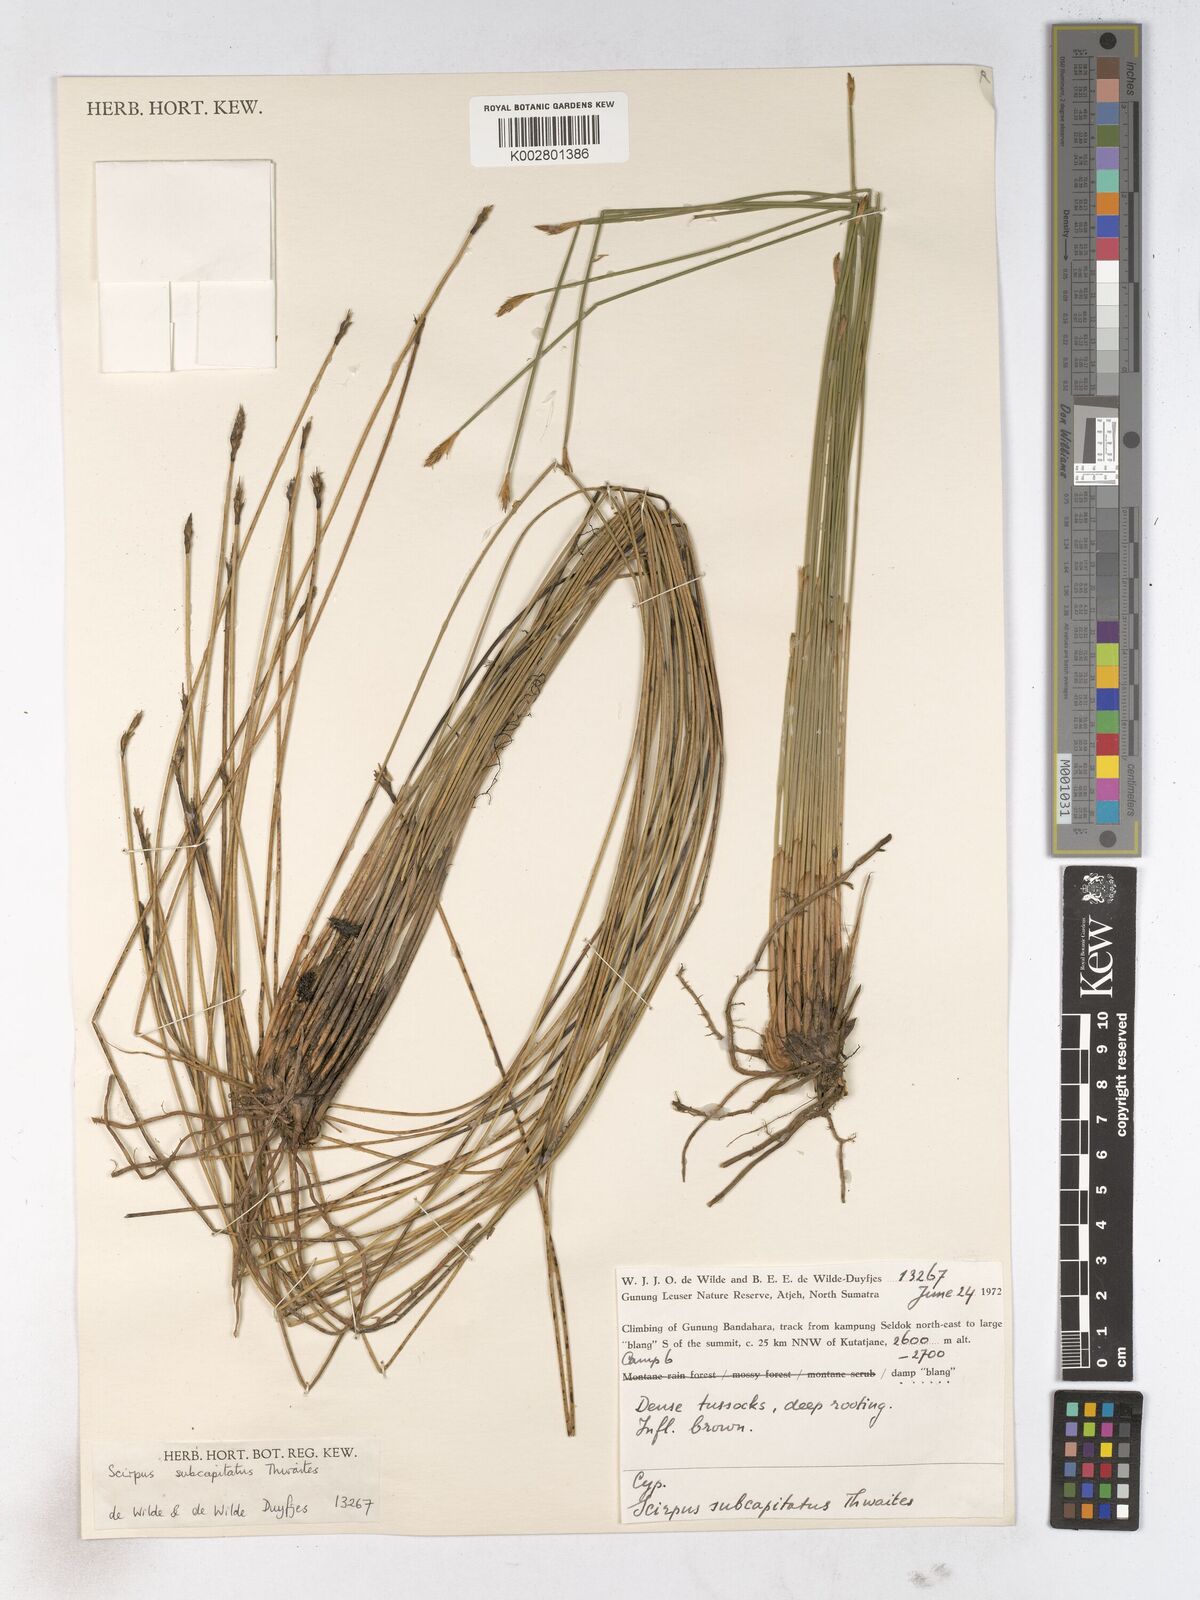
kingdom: Plantae
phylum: Tracheophyta
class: Liliopsida
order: Poales
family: Cyperaceae
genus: Trichophorum
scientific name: Trichophorum subcapitatum
